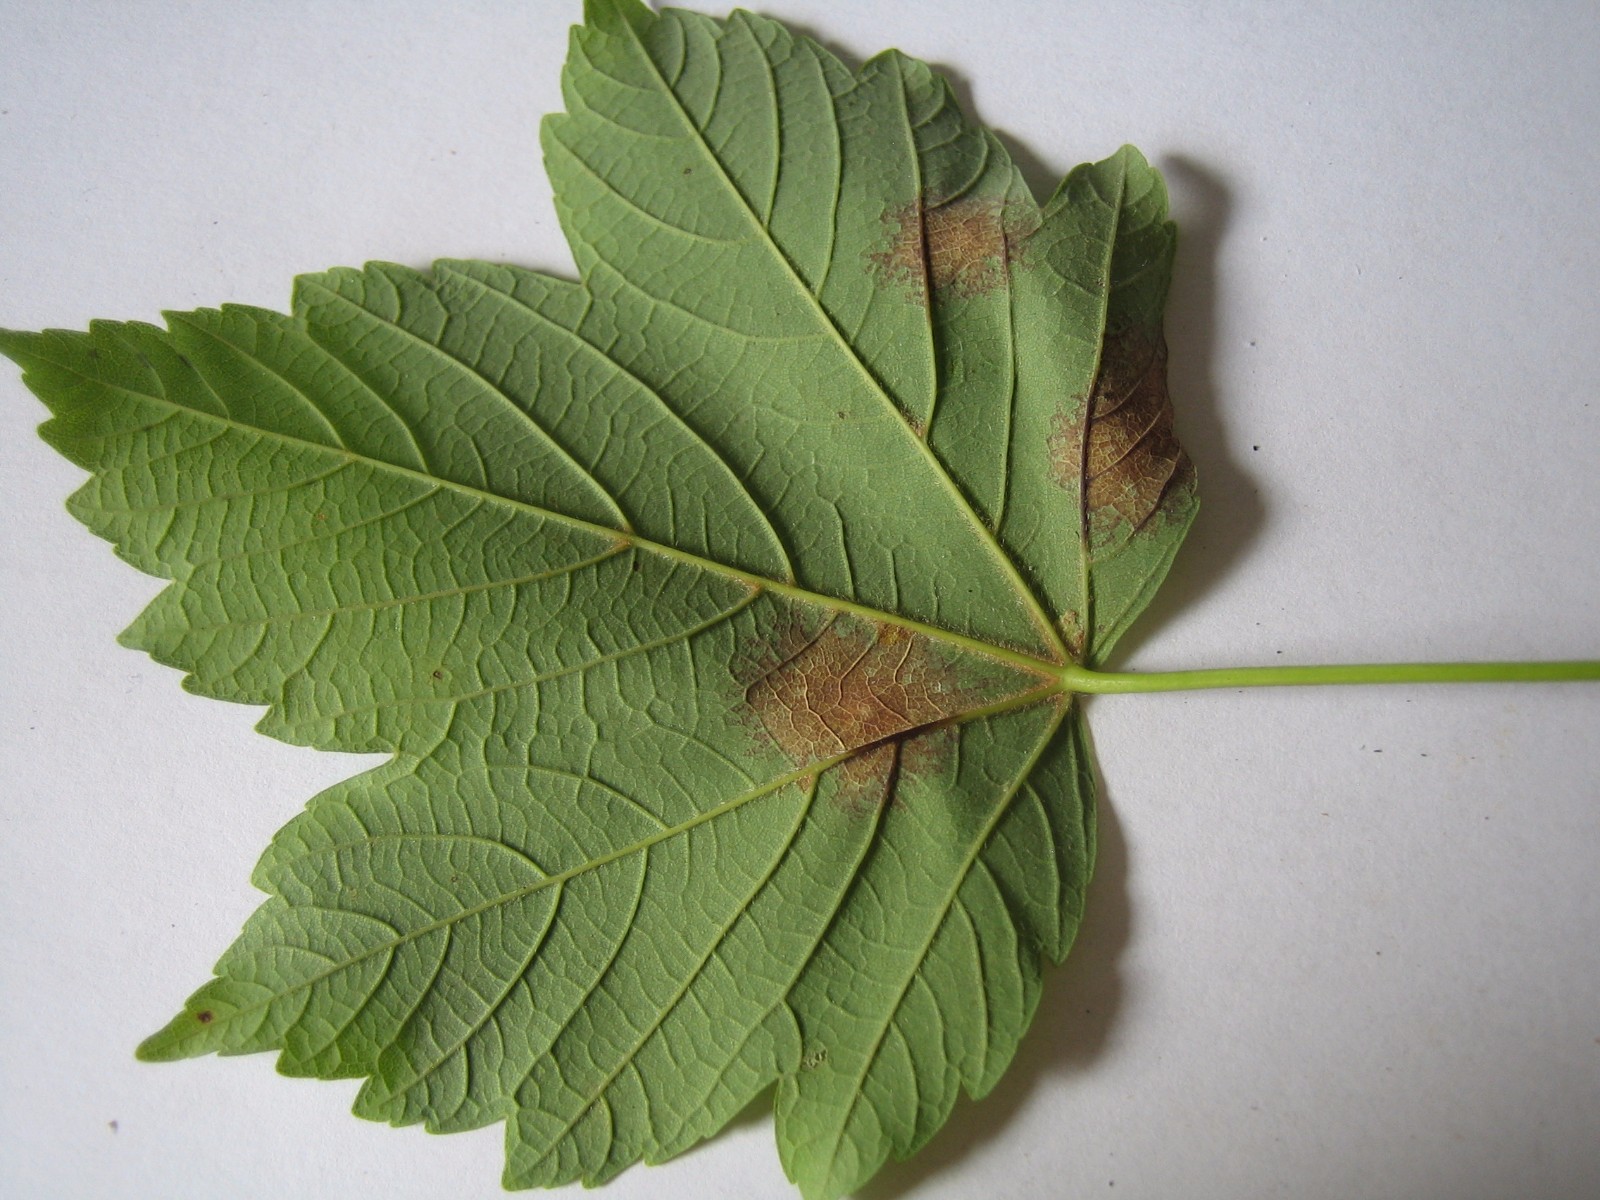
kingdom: Fungi
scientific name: Fungi
